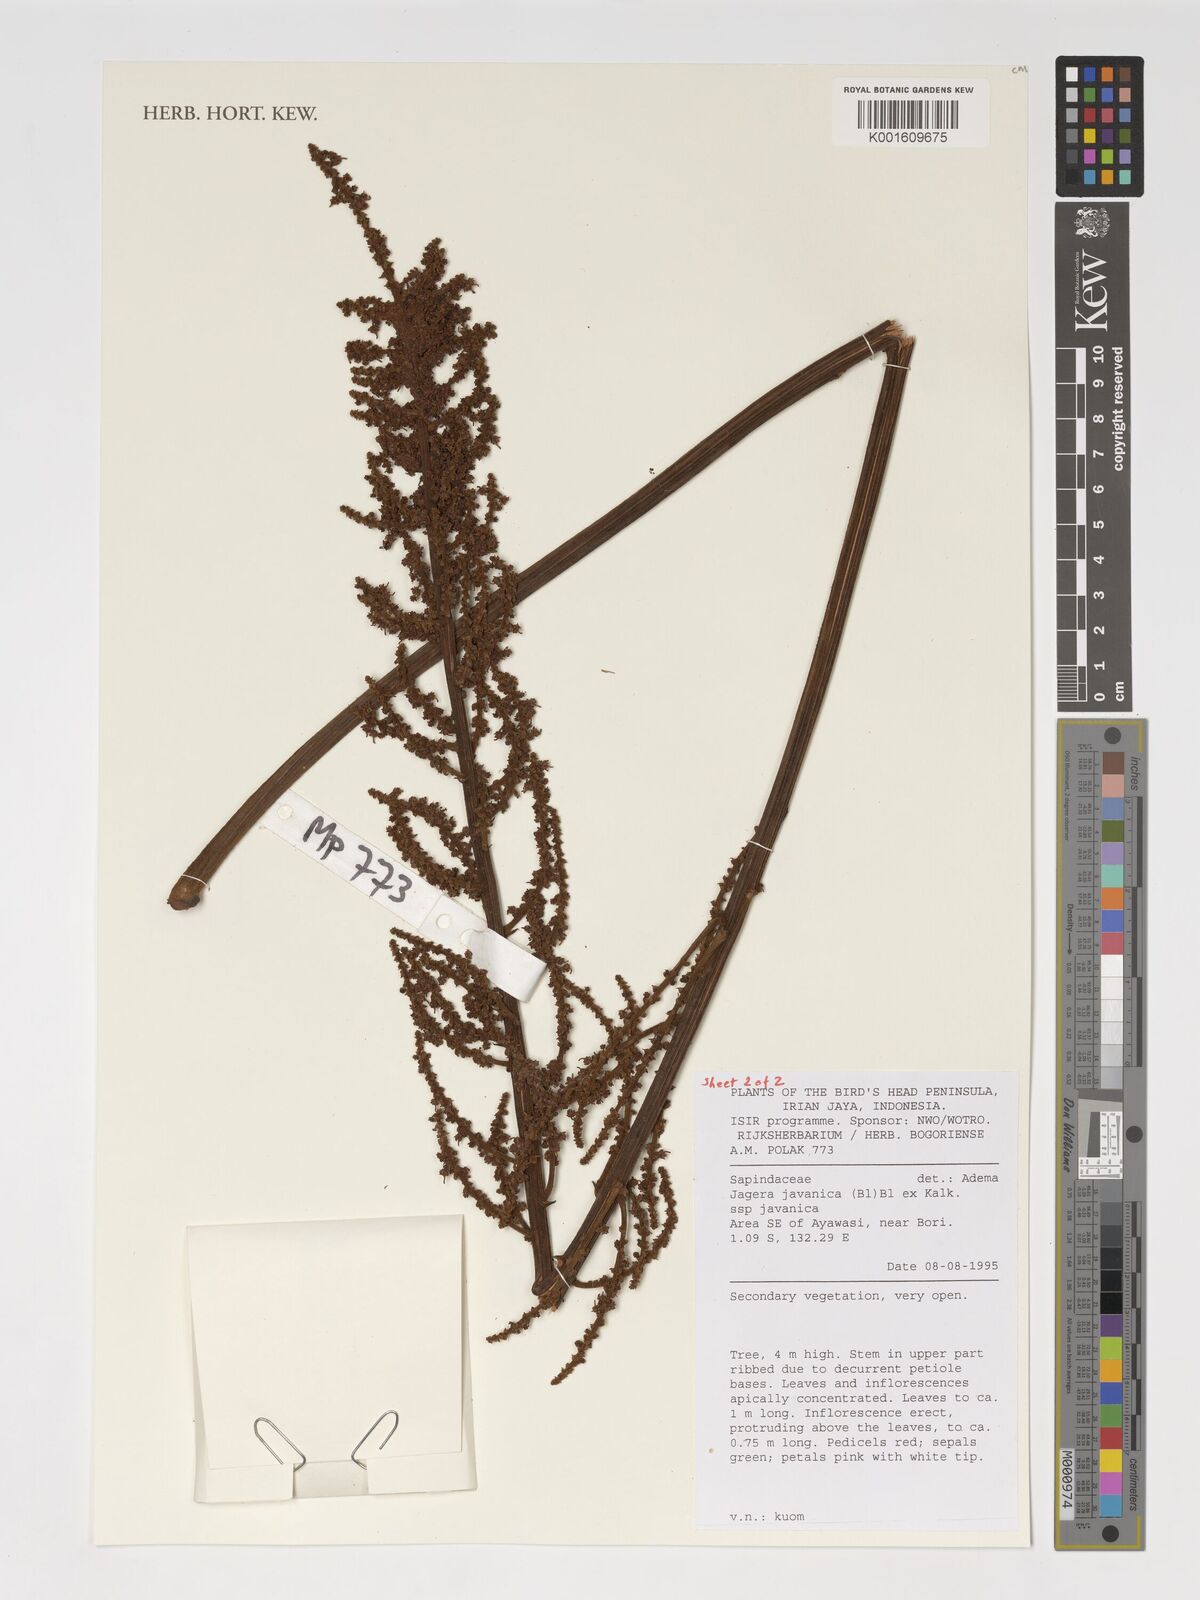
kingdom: Plantae
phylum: Tracheophyta
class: Magnoliopsida
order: Sapindales
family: Sapindaceae
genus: Jagera
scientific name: Jagera javanica
